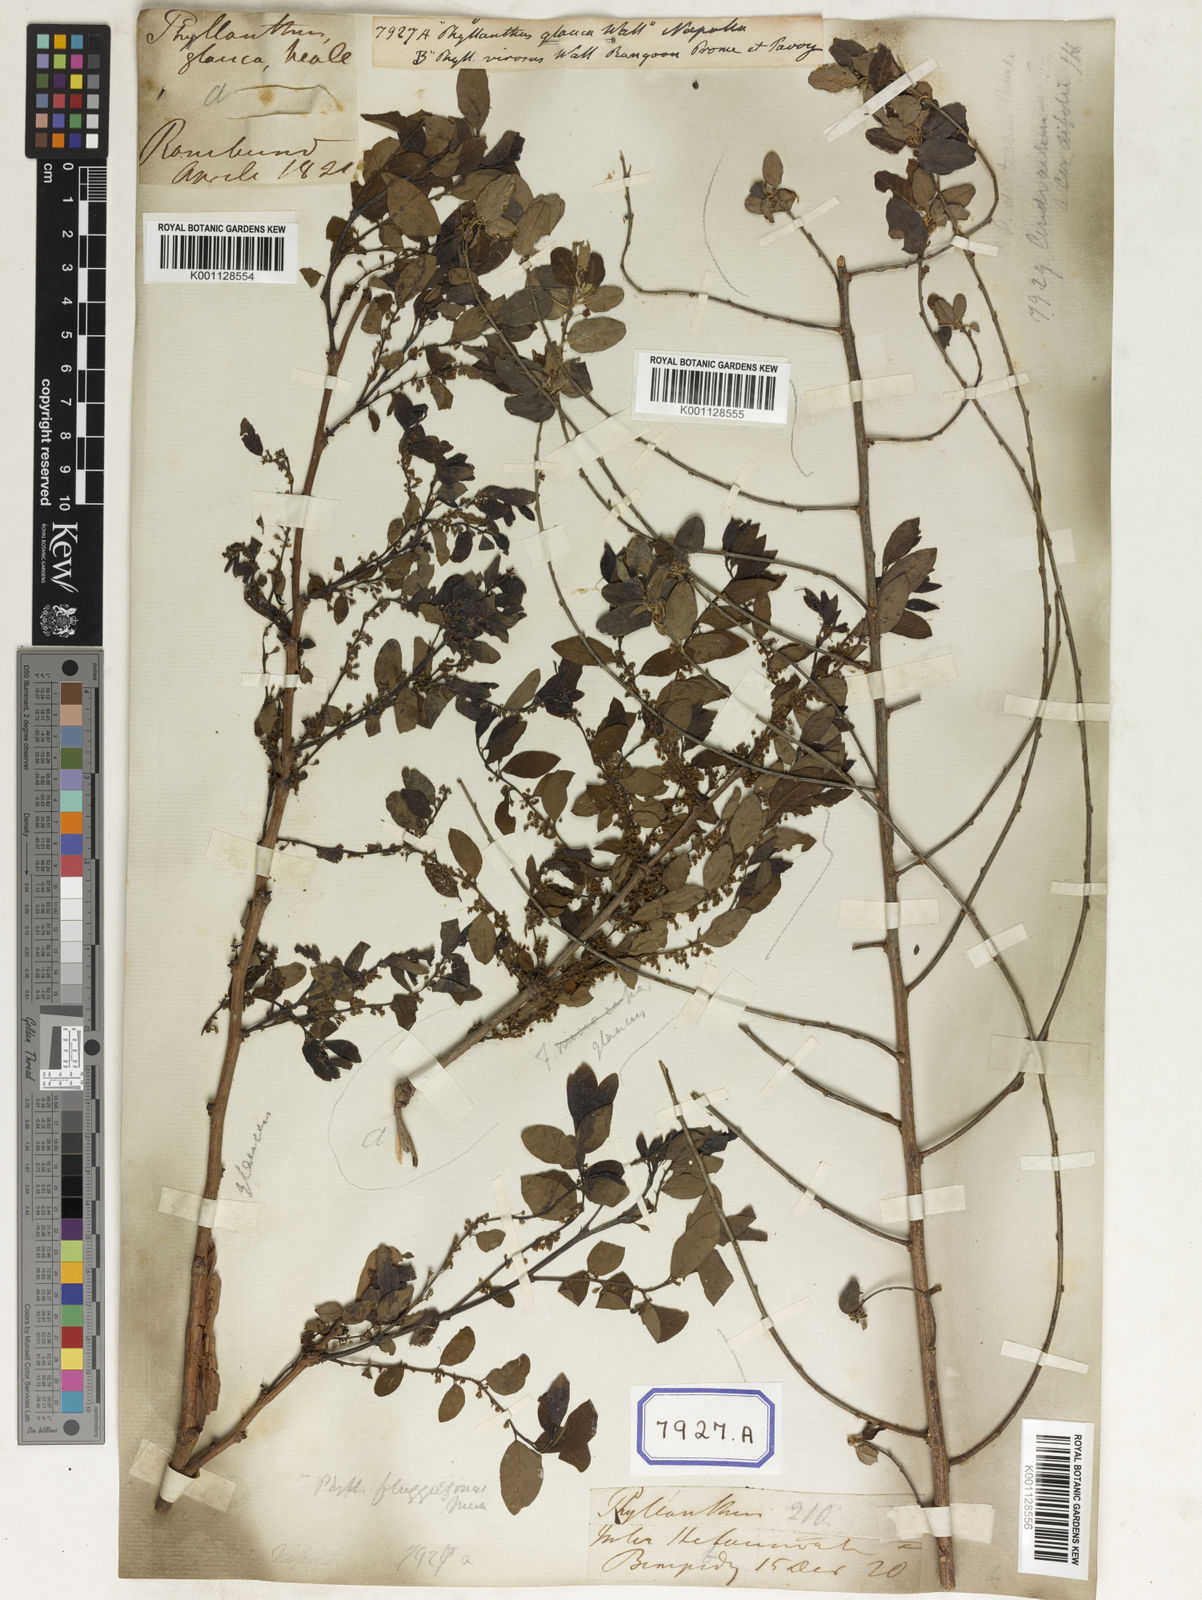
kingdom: Plantae
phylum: Tracheophyta
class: Magnoliopsida
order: Malpighiales
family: Euphorbiaceae
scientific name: Euphorbiaceae
